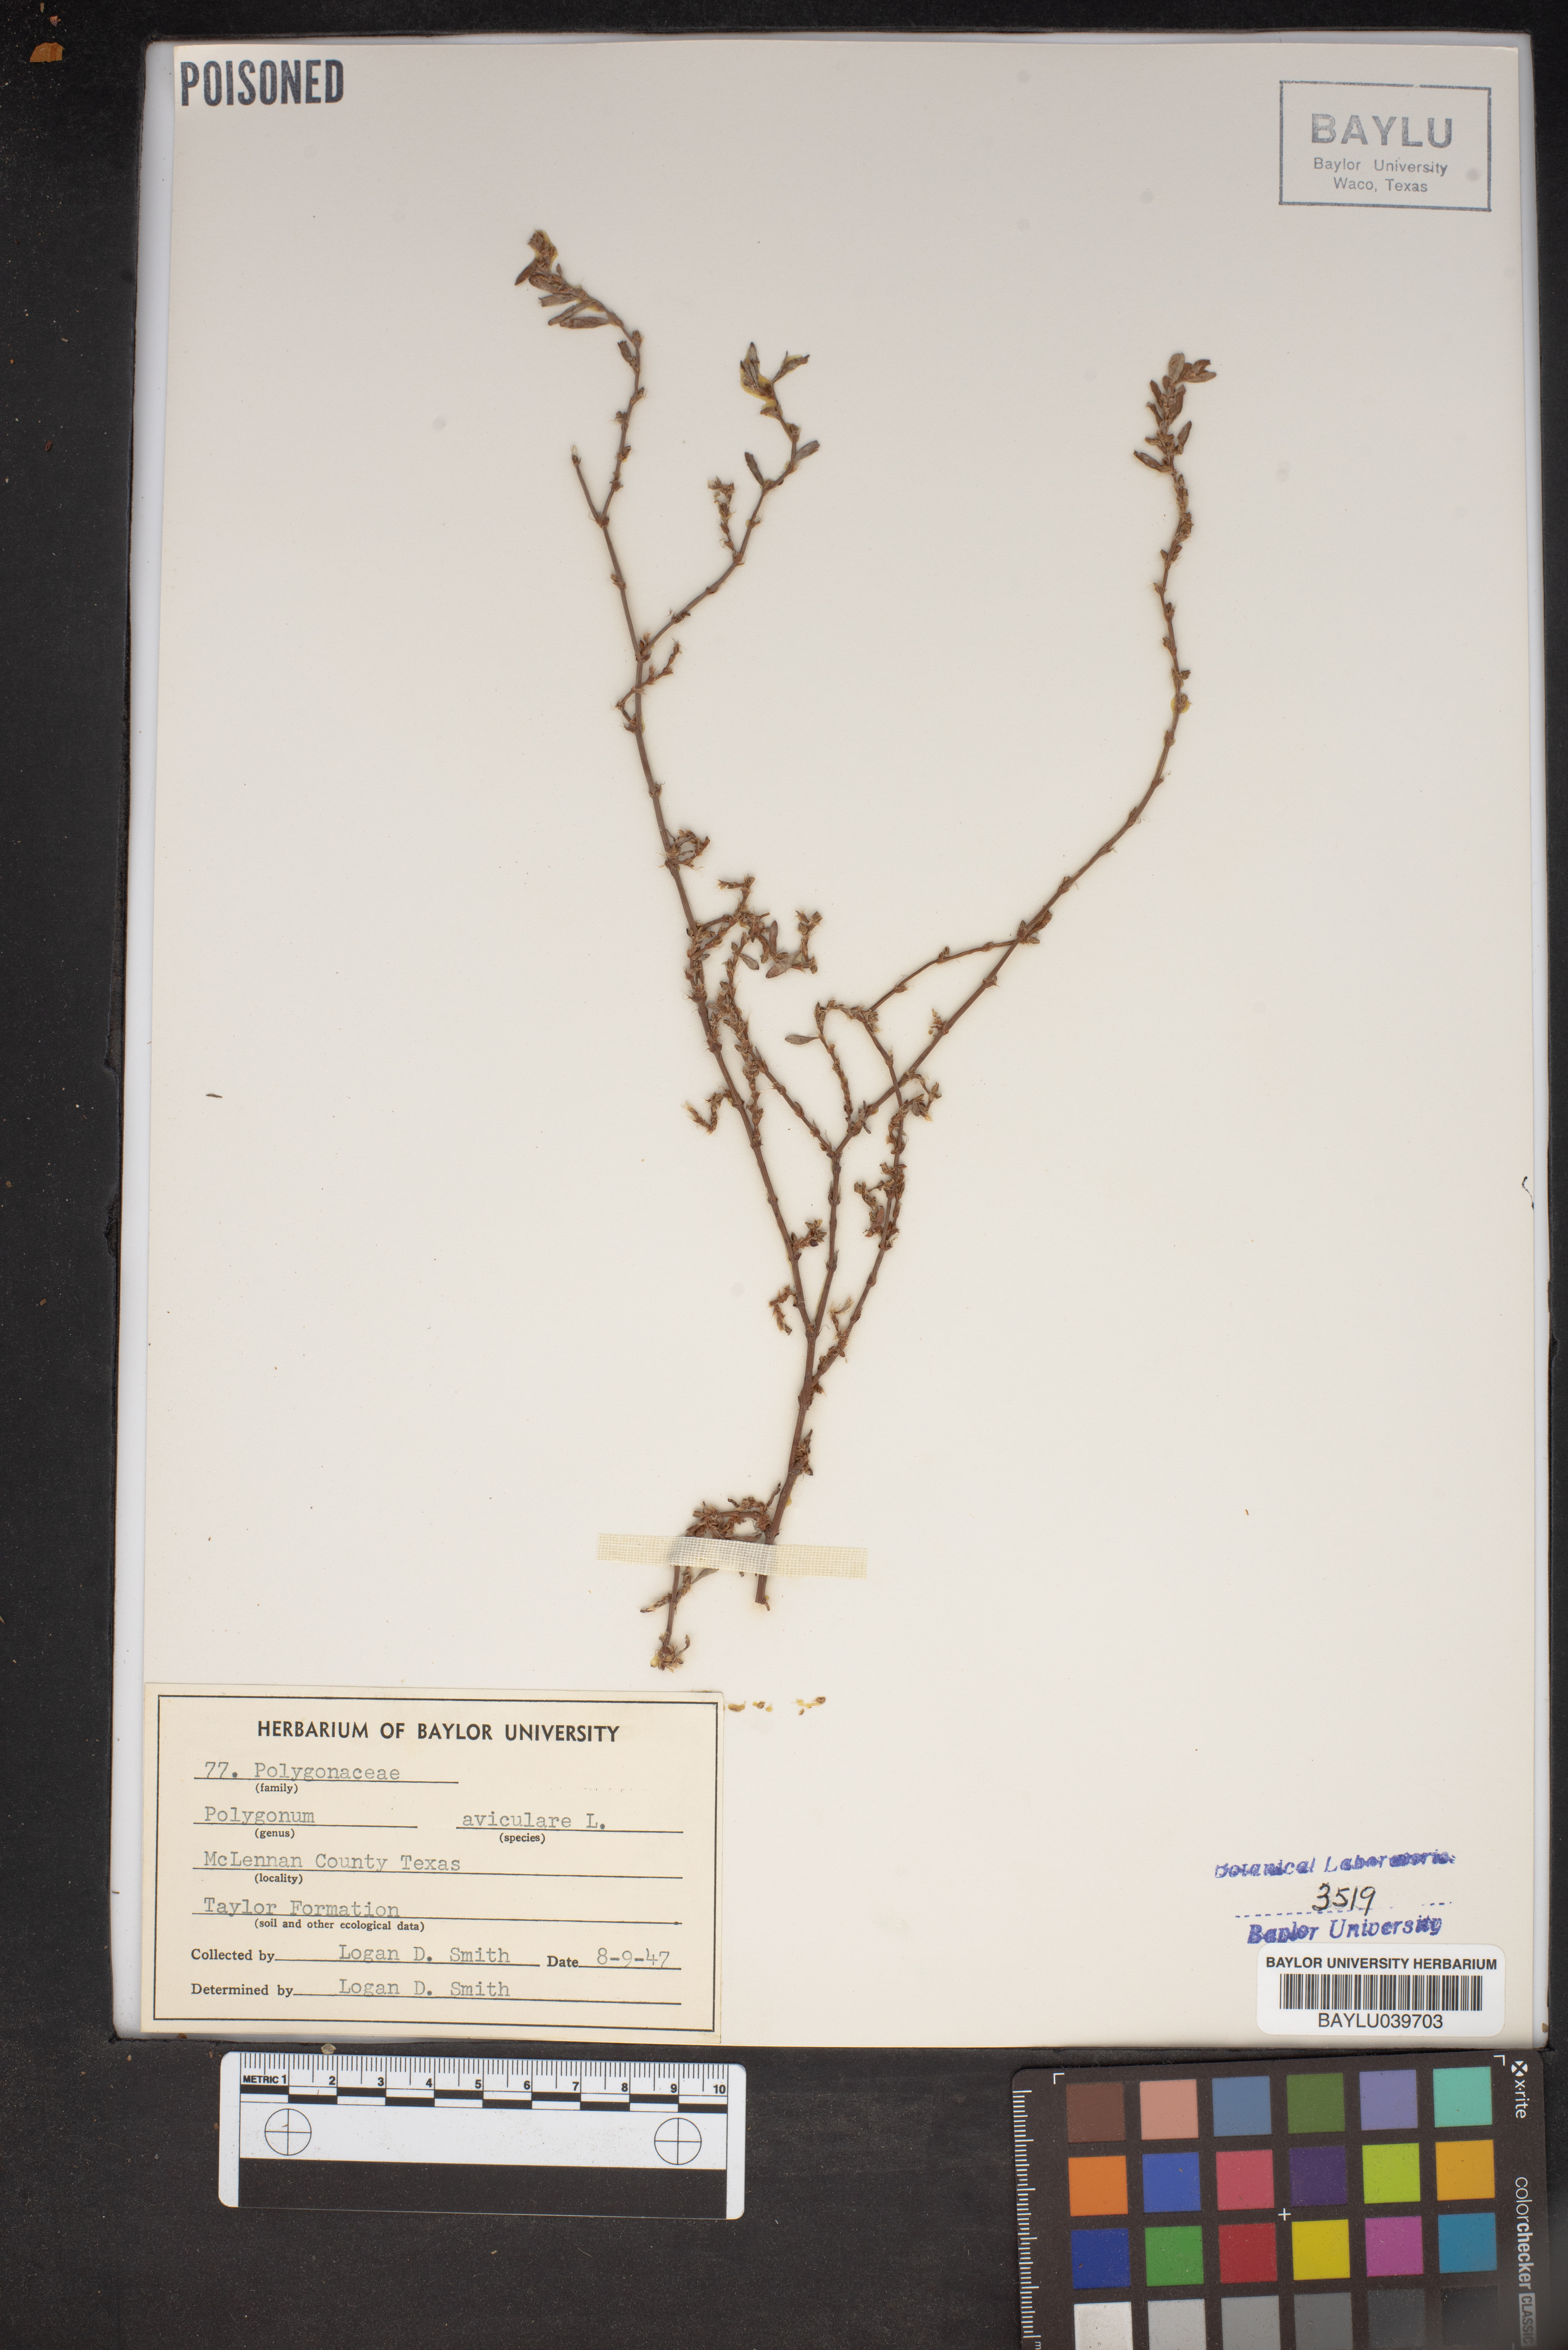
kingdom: Plantae
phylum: Tracheophyta
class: Magnoliopsida
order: Caryophyllales
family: Polygonaceae
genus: Polygonum
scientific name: Polygonum aviculare
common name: Prostrate knotweed
